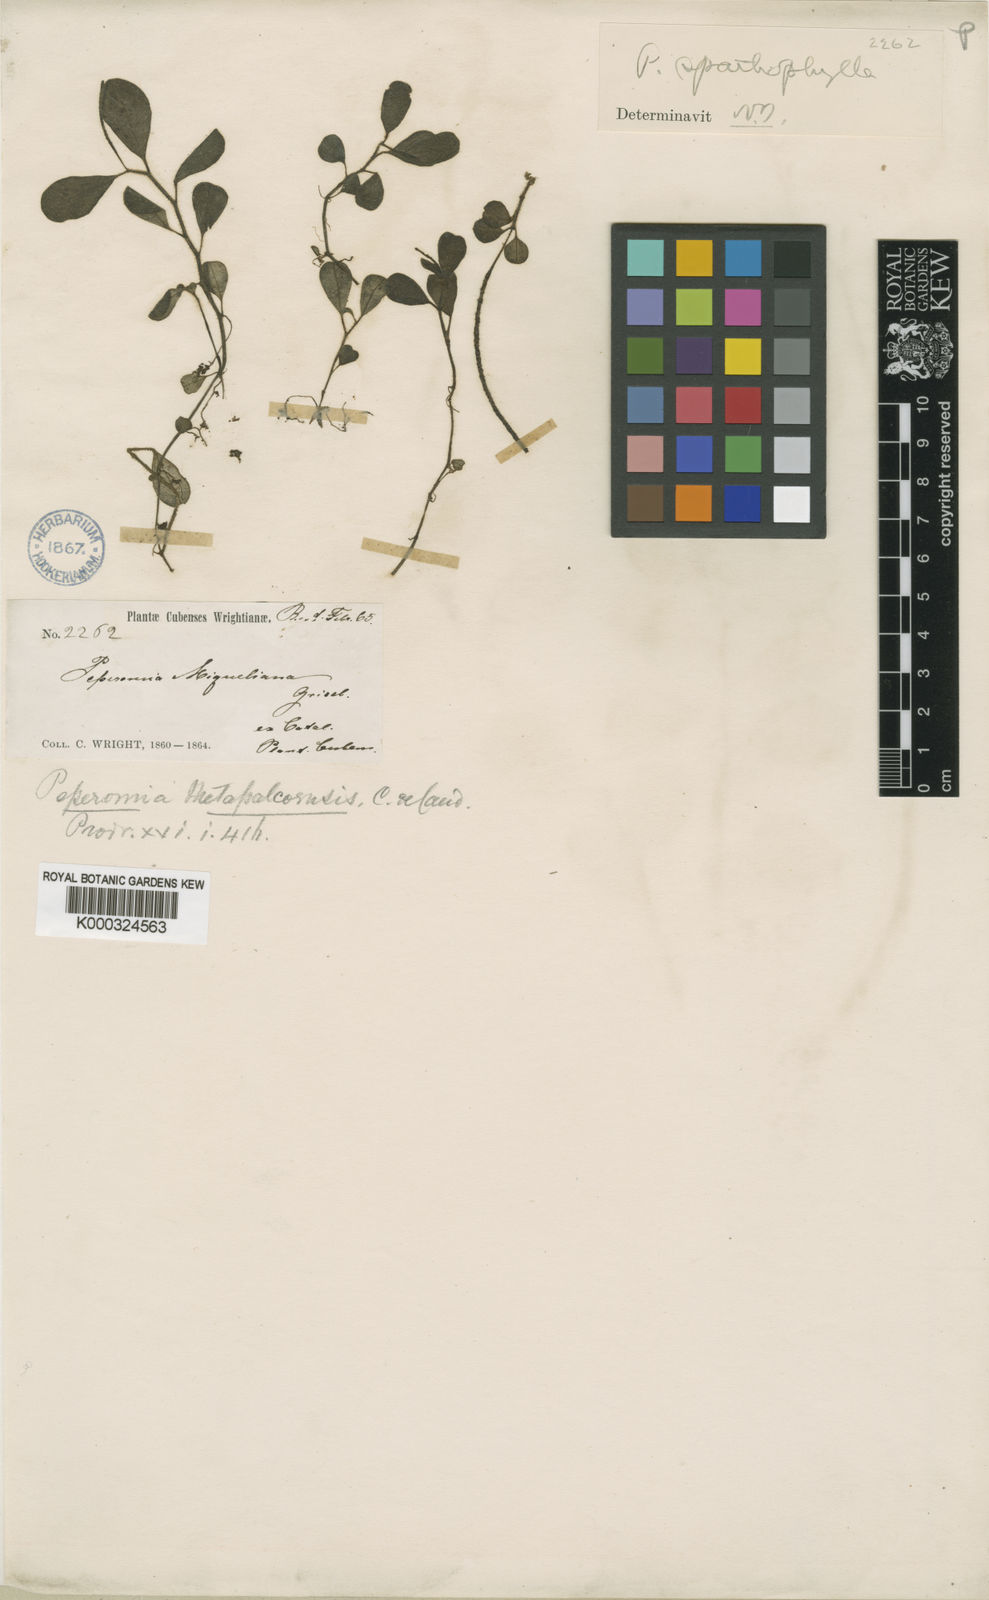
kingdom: Plantae
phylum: Tracheophyta
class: Magnoliopsida
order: Piperales
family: Piperaceae
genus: Peperomia
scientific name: Peperomia guadaloupensis
